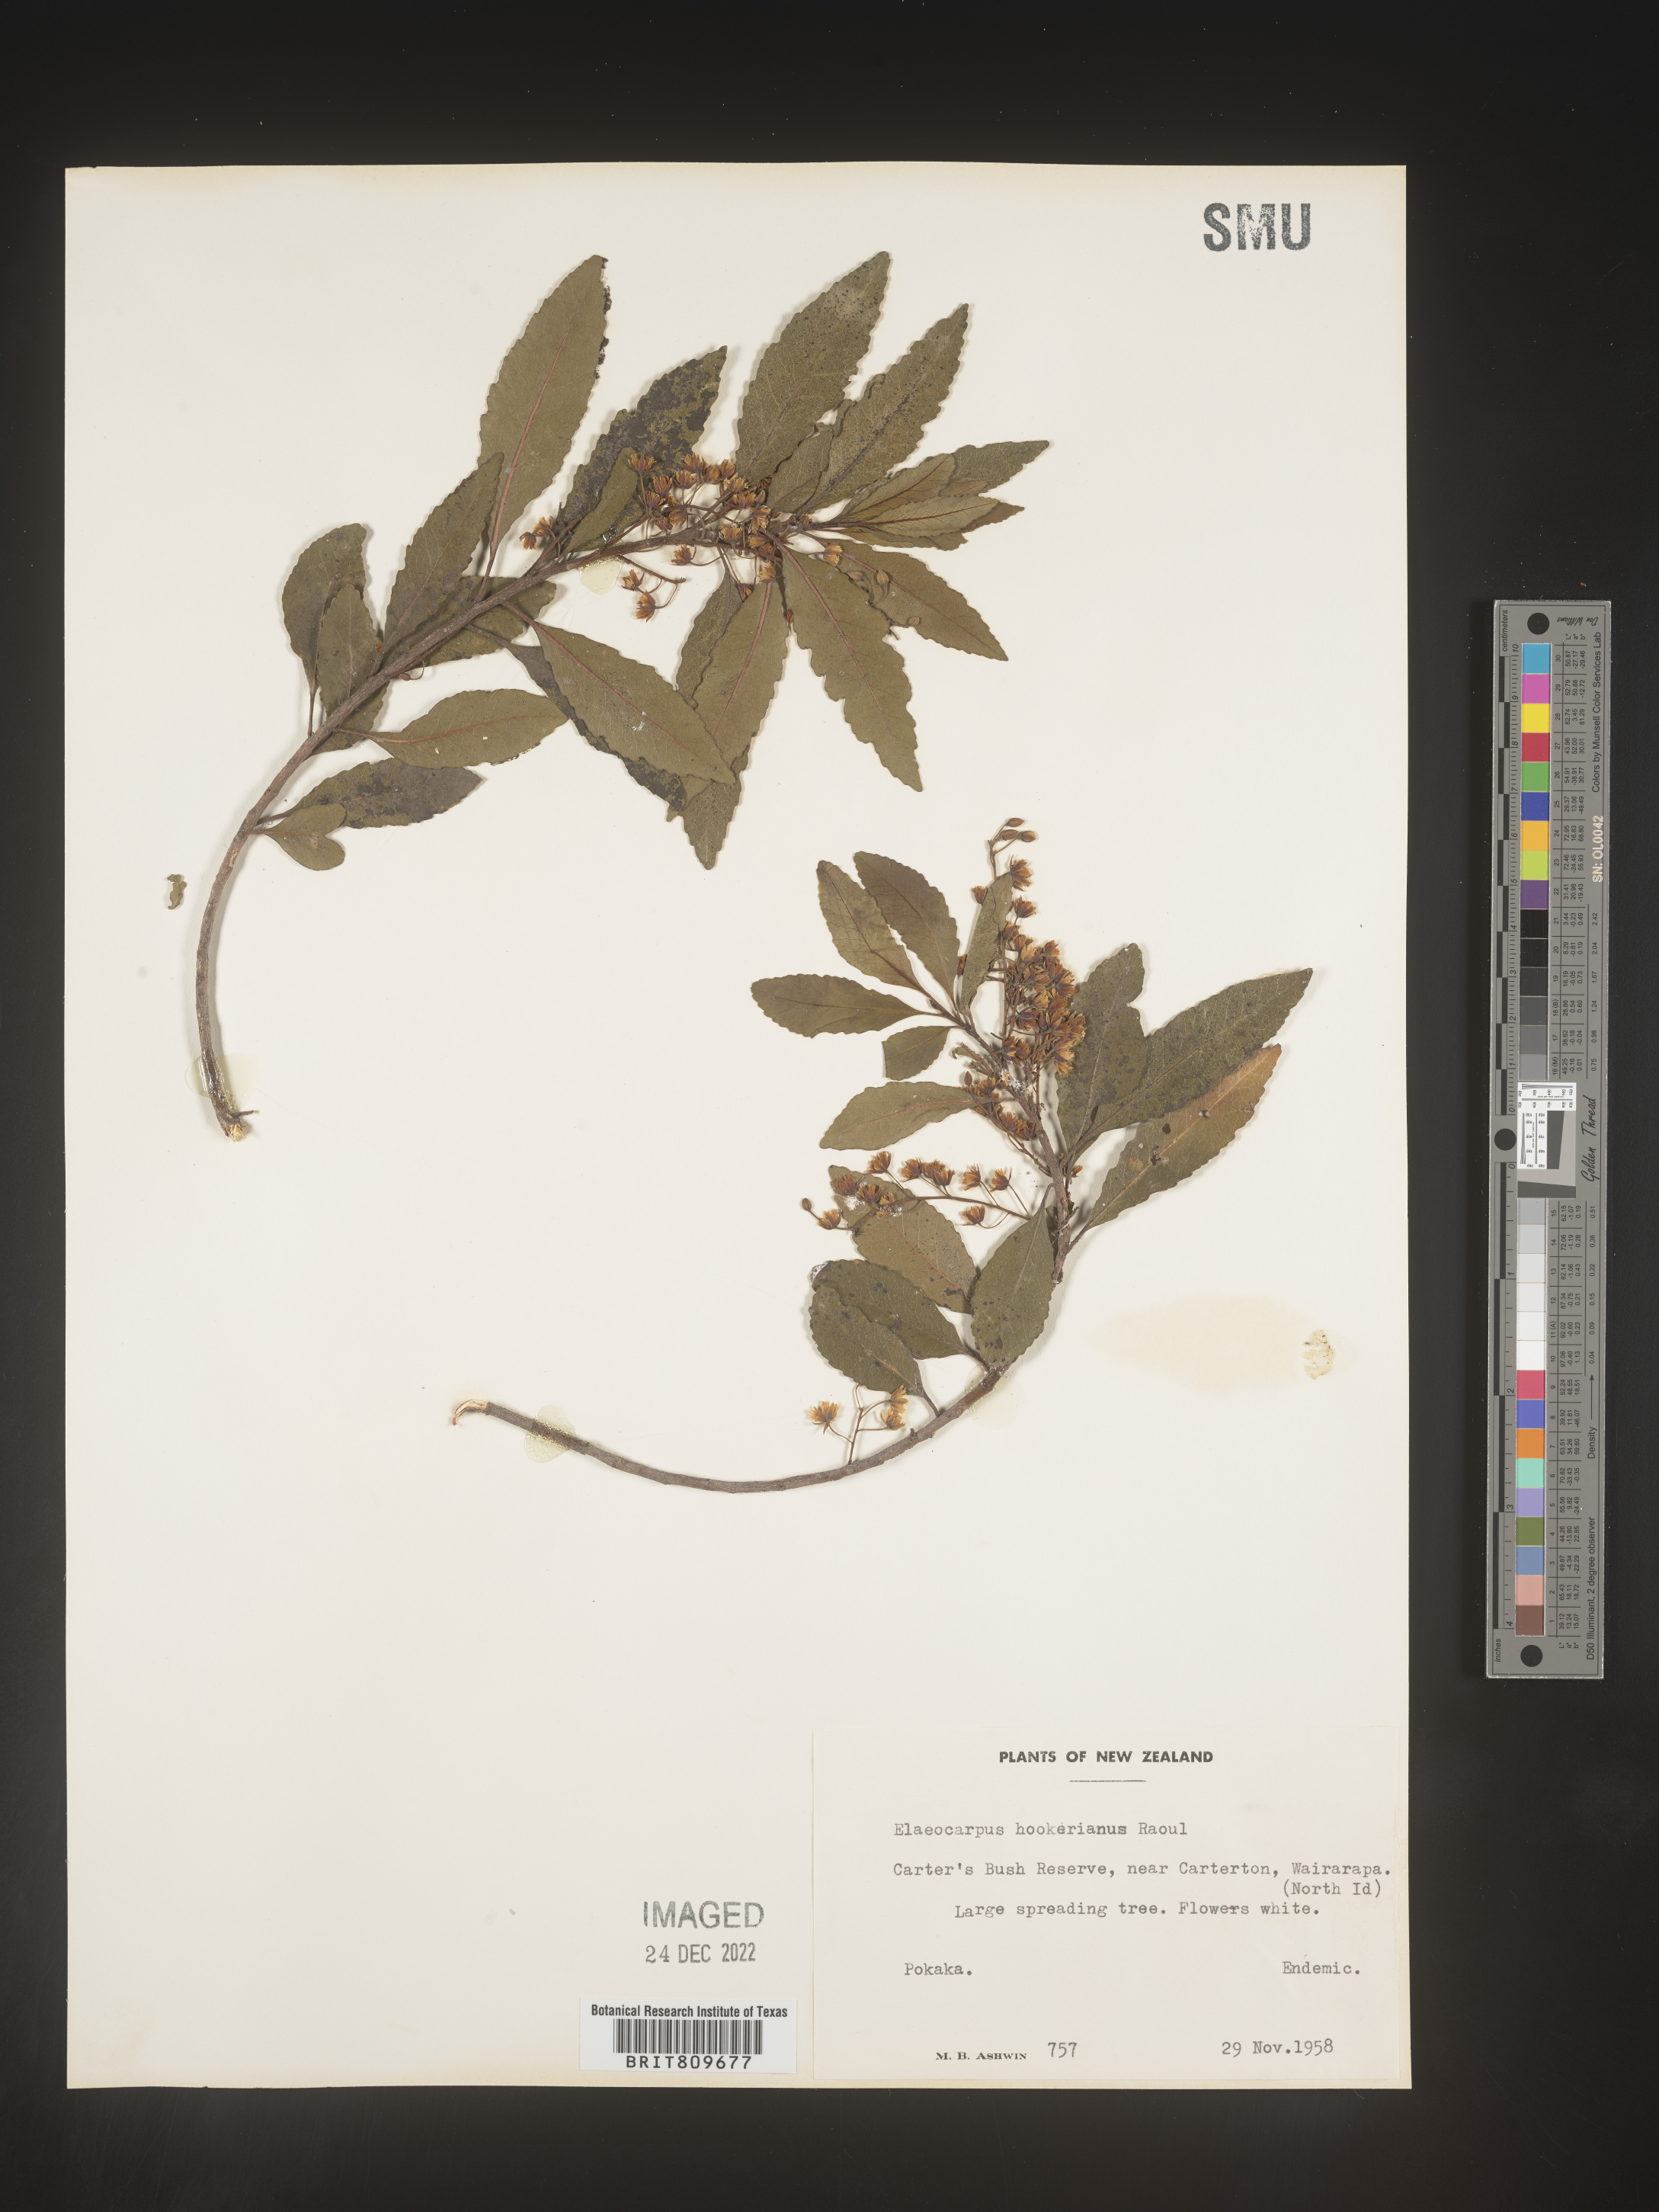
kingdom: Plantae
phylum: Tracheophyta
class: Magnoliopsida
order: Oxalidales
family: Elaeocarpaceae
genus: Elaeocarpus
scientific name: Elaeocarpus
